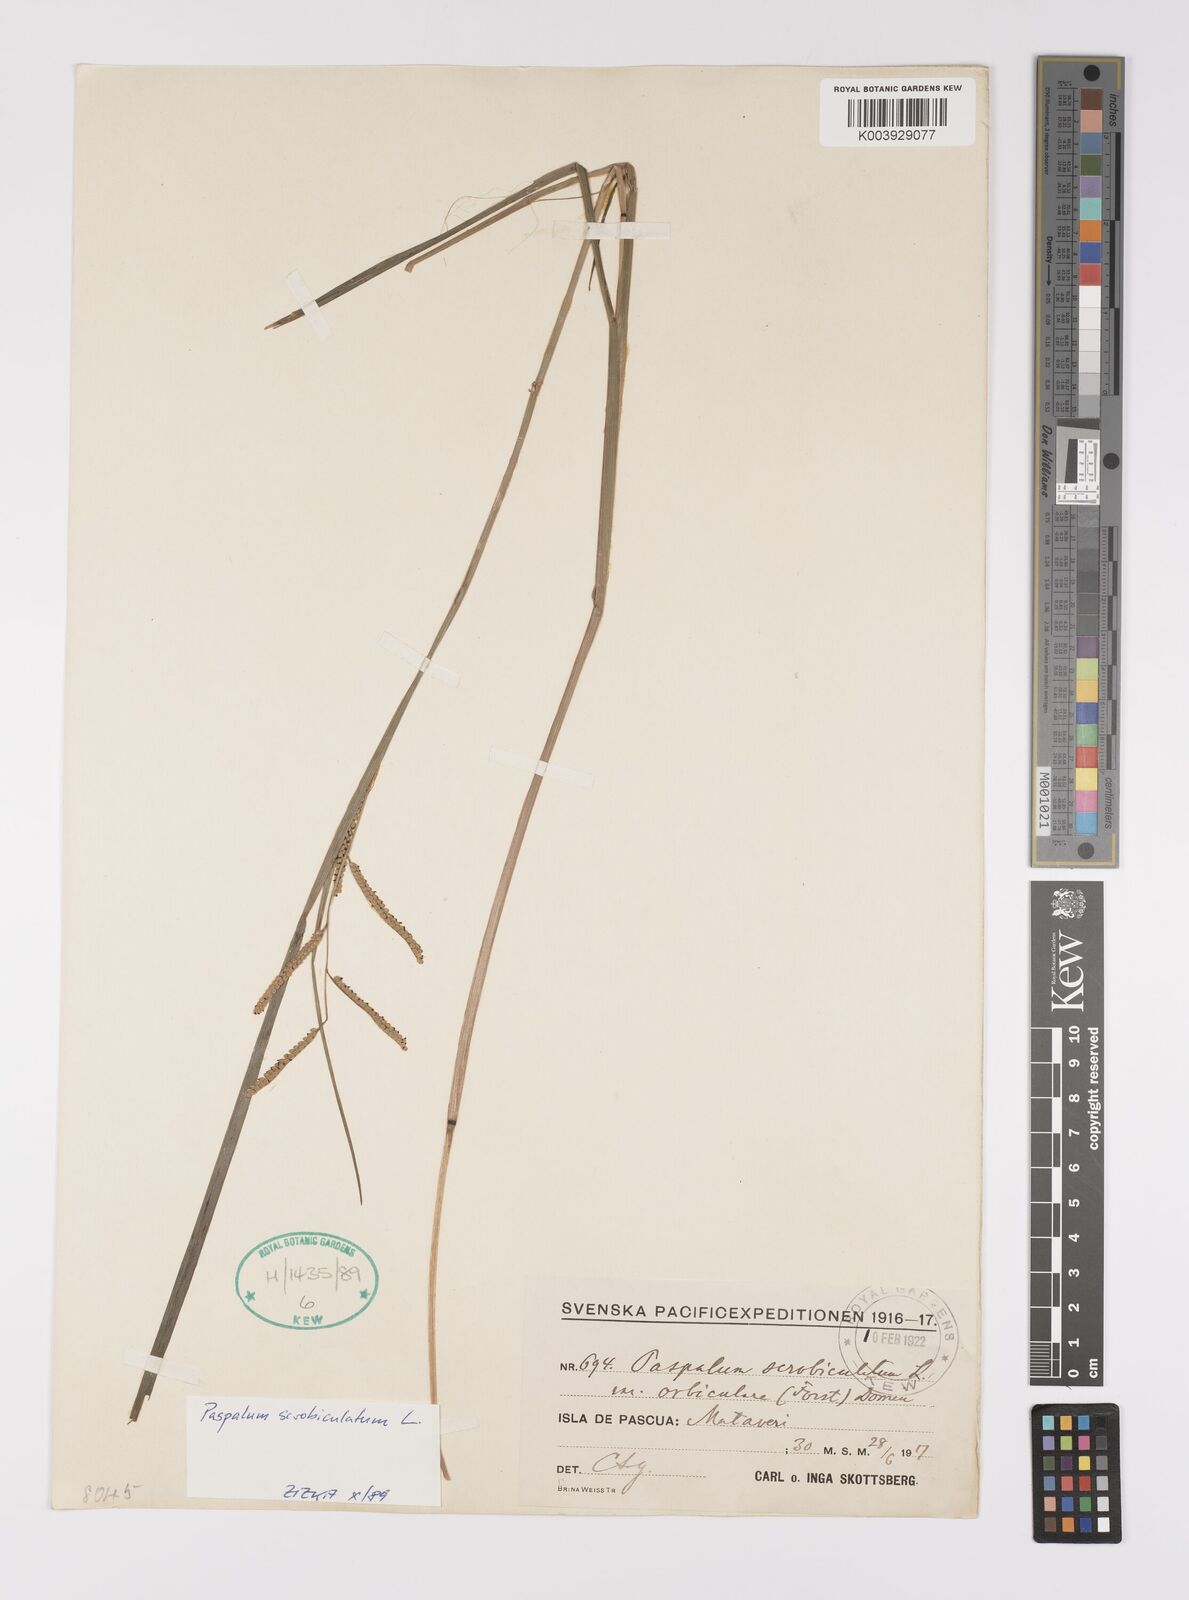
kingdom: Plantae
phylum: Tracheophyta
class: Liliopsida
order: Poales
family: Poaceae
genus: Paspalum
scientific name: Paspalum
